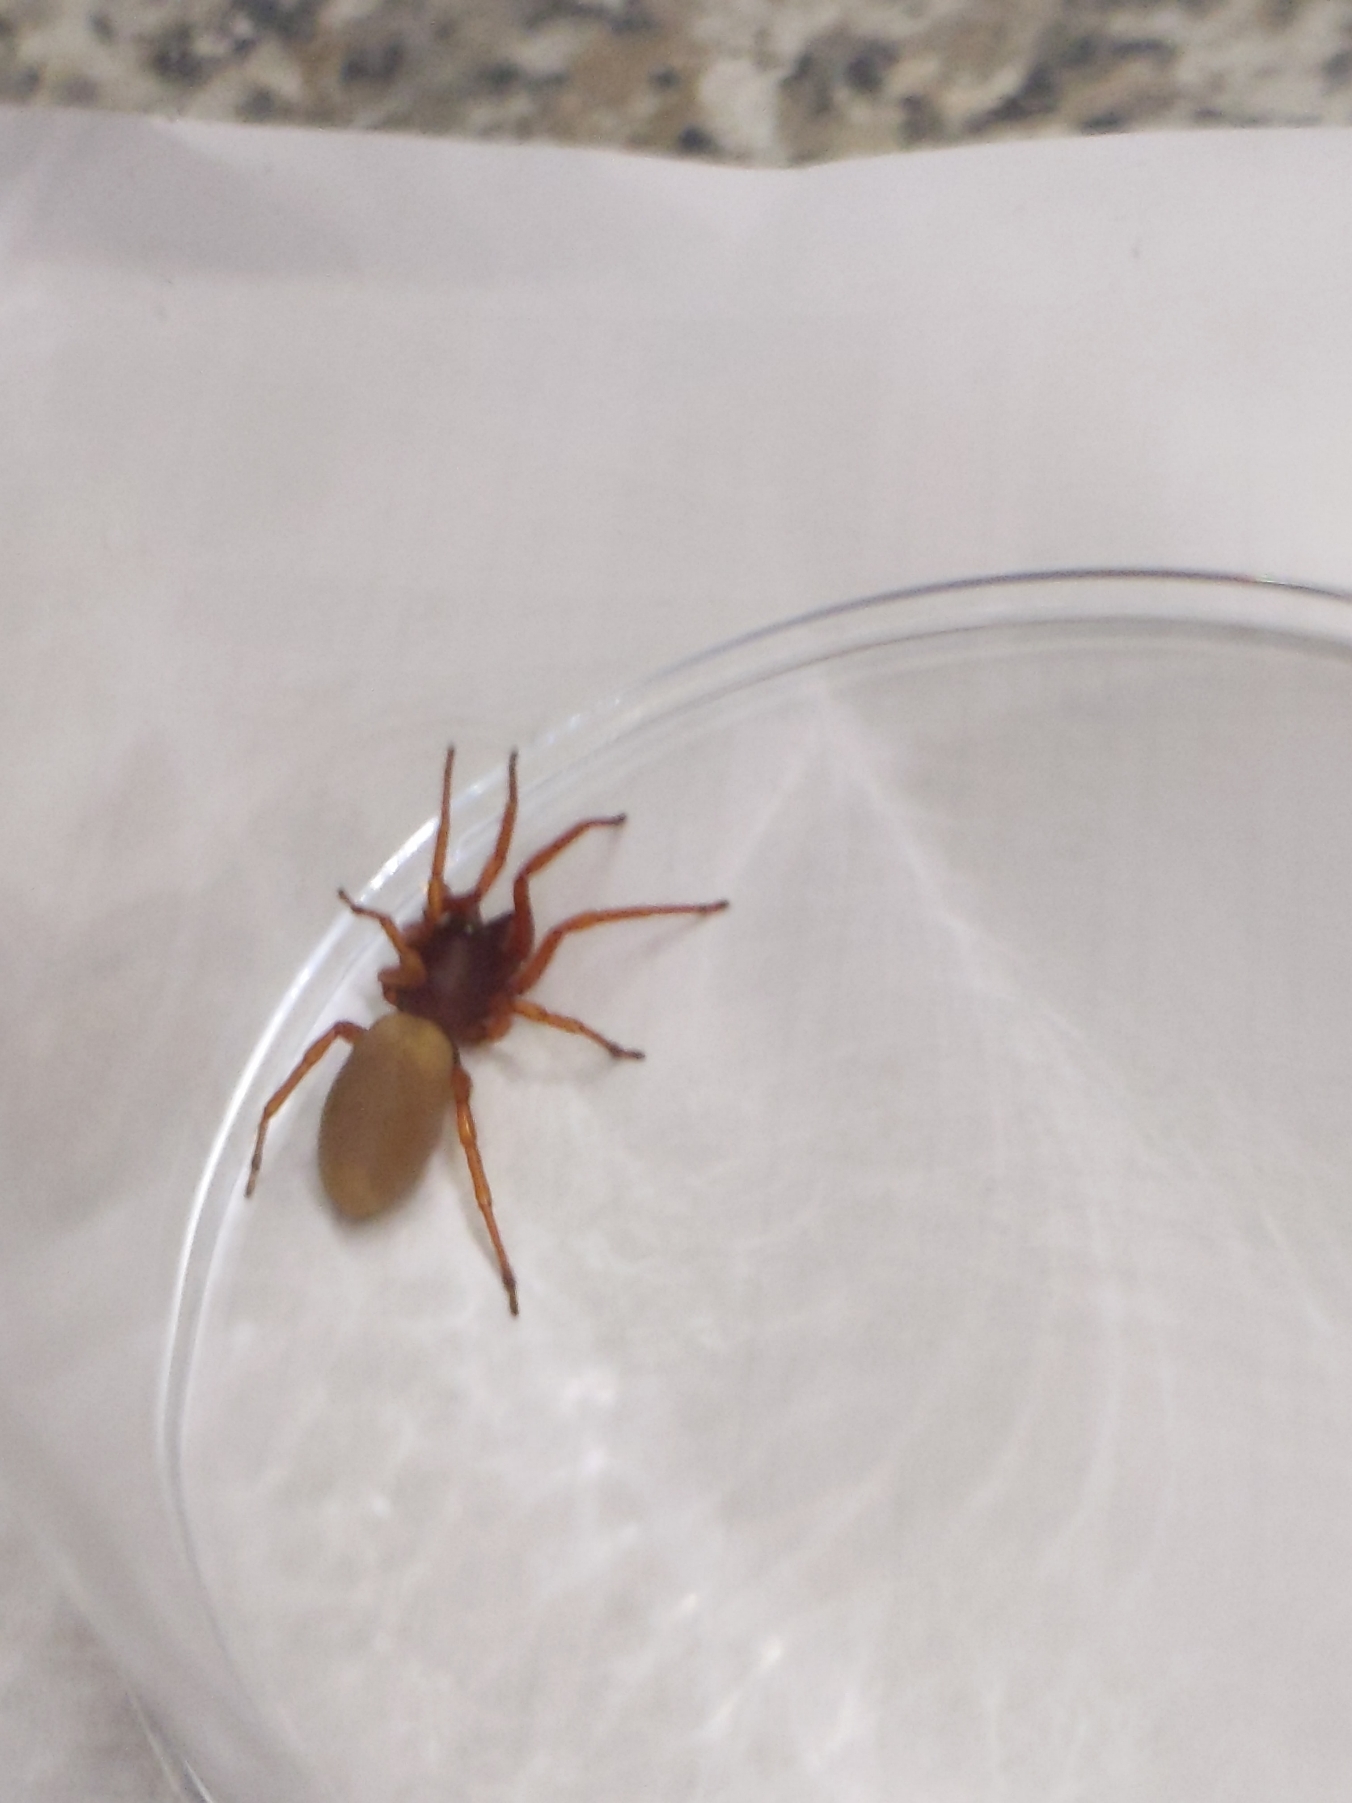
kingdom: Animalia
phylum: Arthropoda
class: Arachnida
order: Araneae
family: Dysderidae
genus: Dysdera
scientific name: Dysdera
